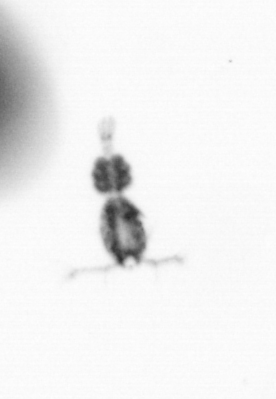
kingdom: Animalia
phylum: Arthropoda
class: Copepoda
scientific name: Copepoda
